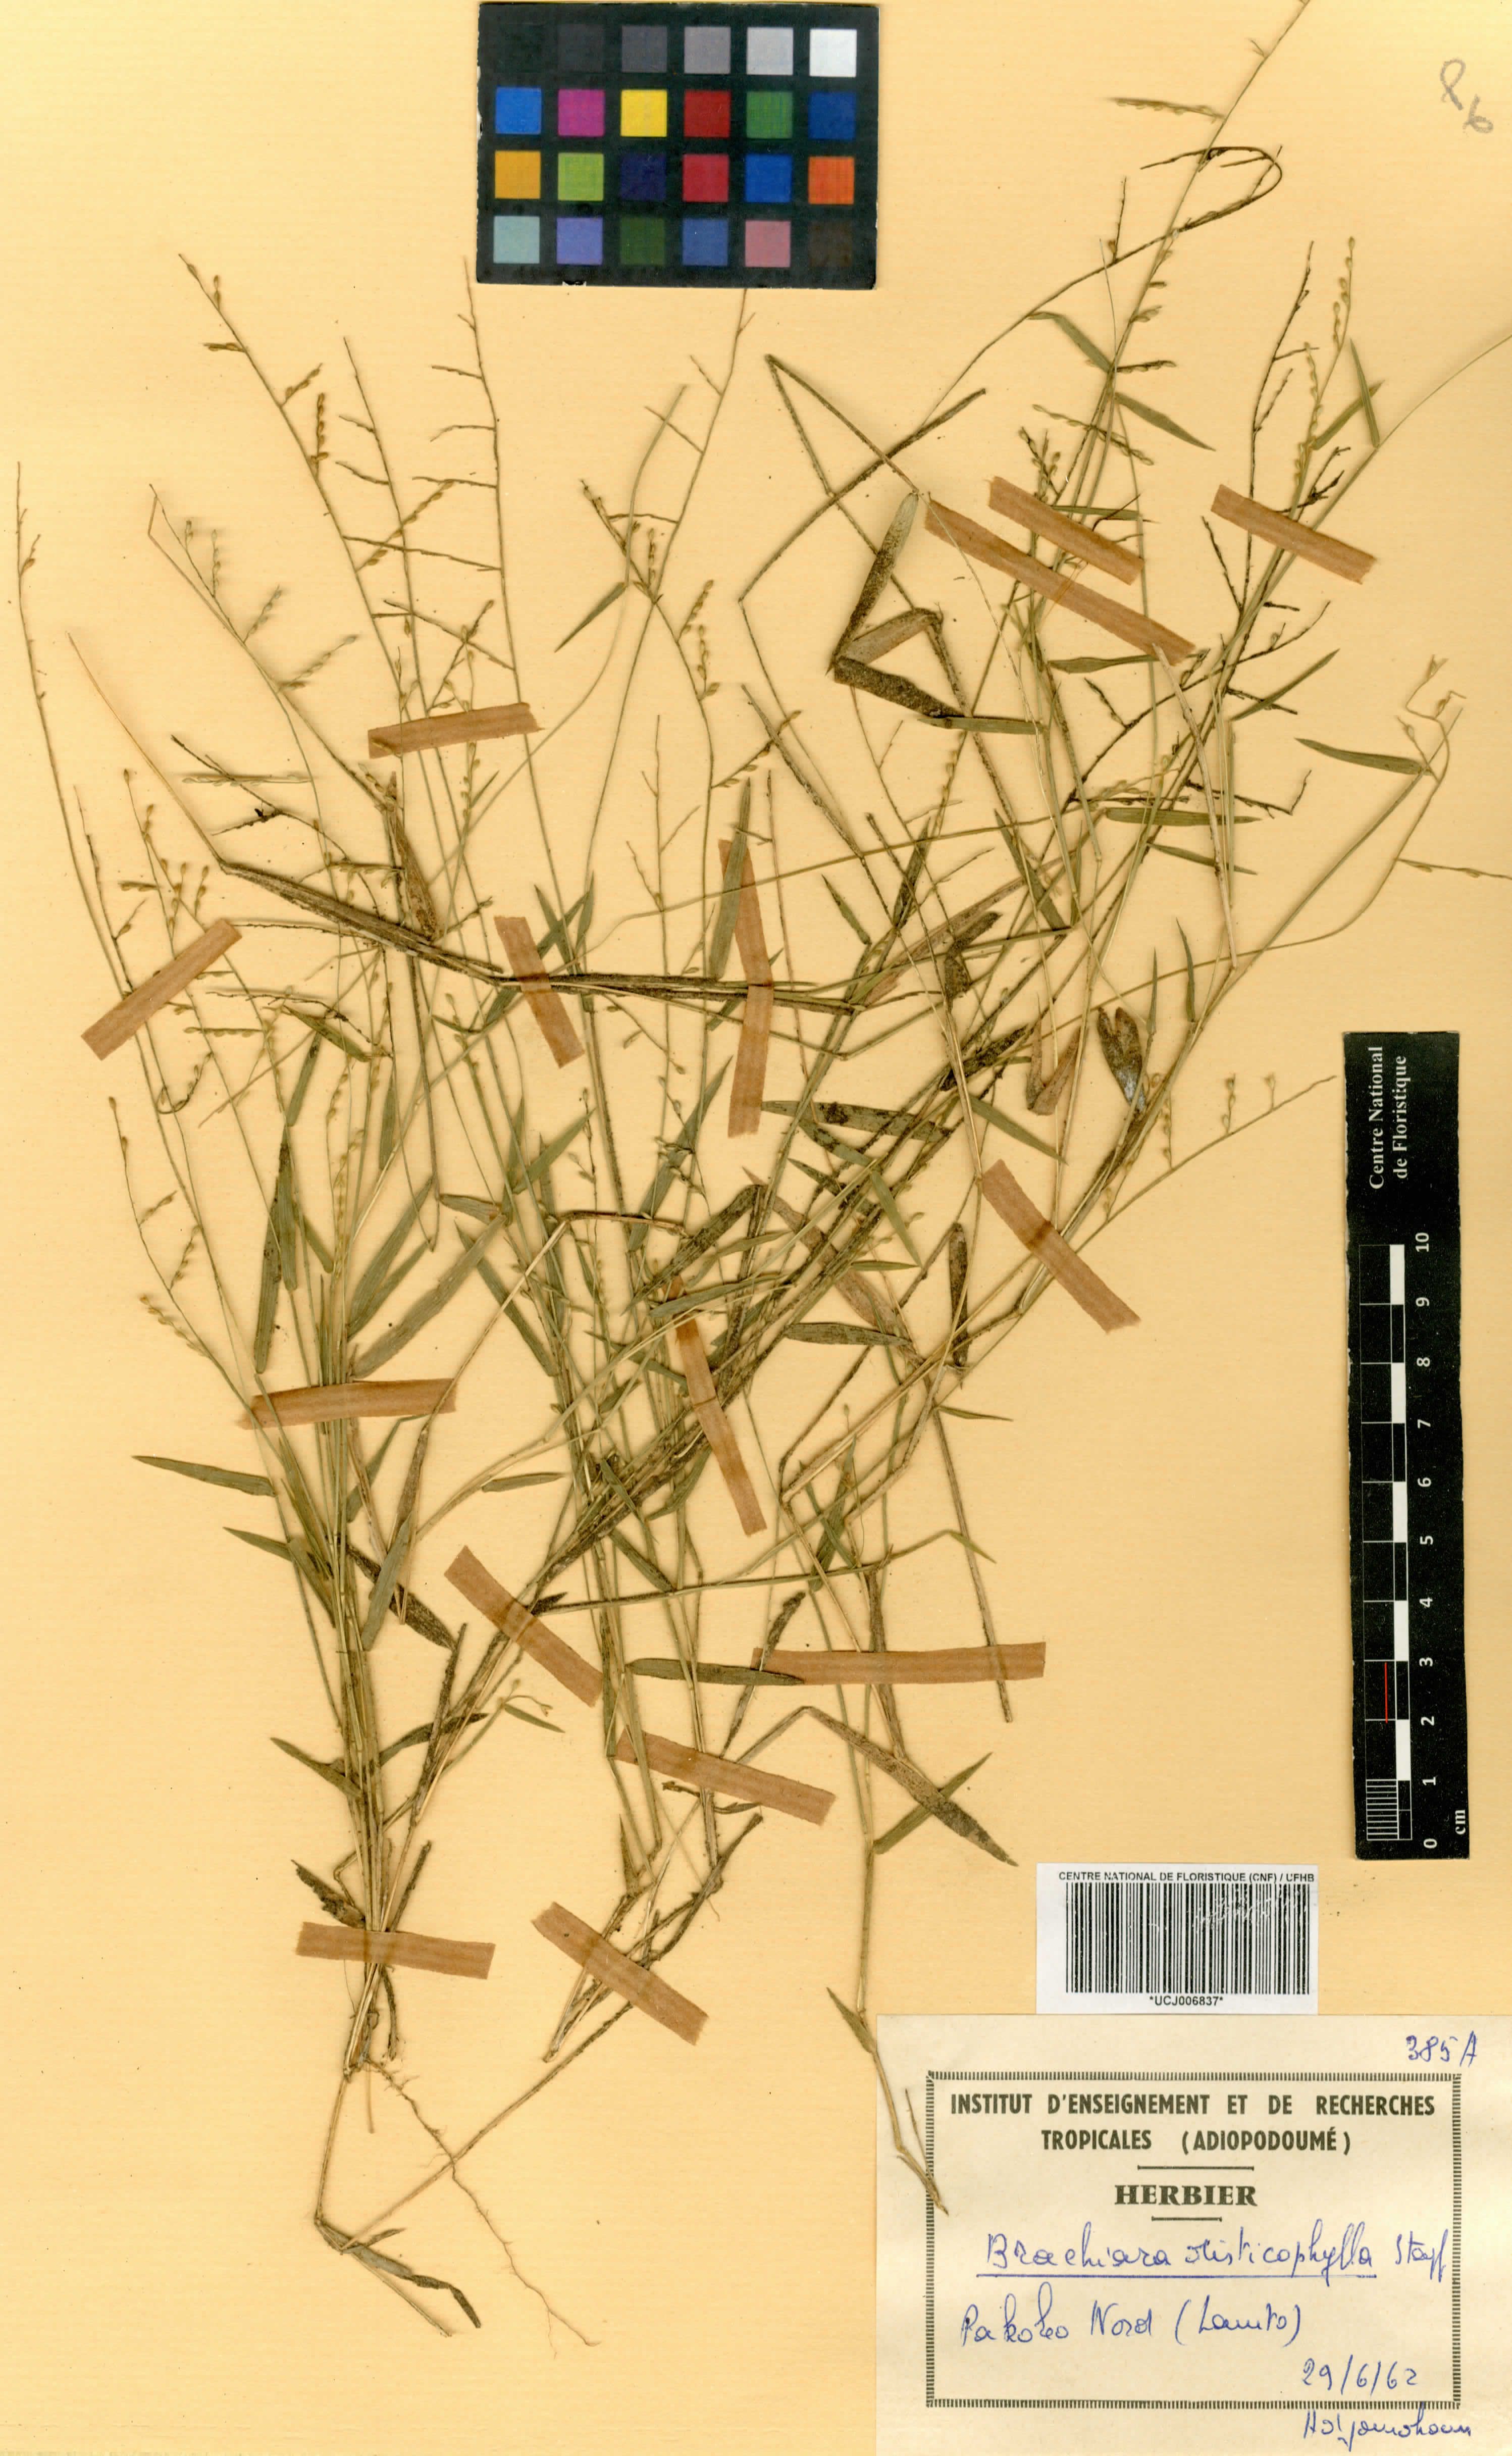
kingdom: Plantae
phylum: Tracheophyta
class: Liliopsida
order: Poales
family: Poaceae
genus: Urochloa
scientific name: Urochloa villosa
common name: Hairy signalgrass
